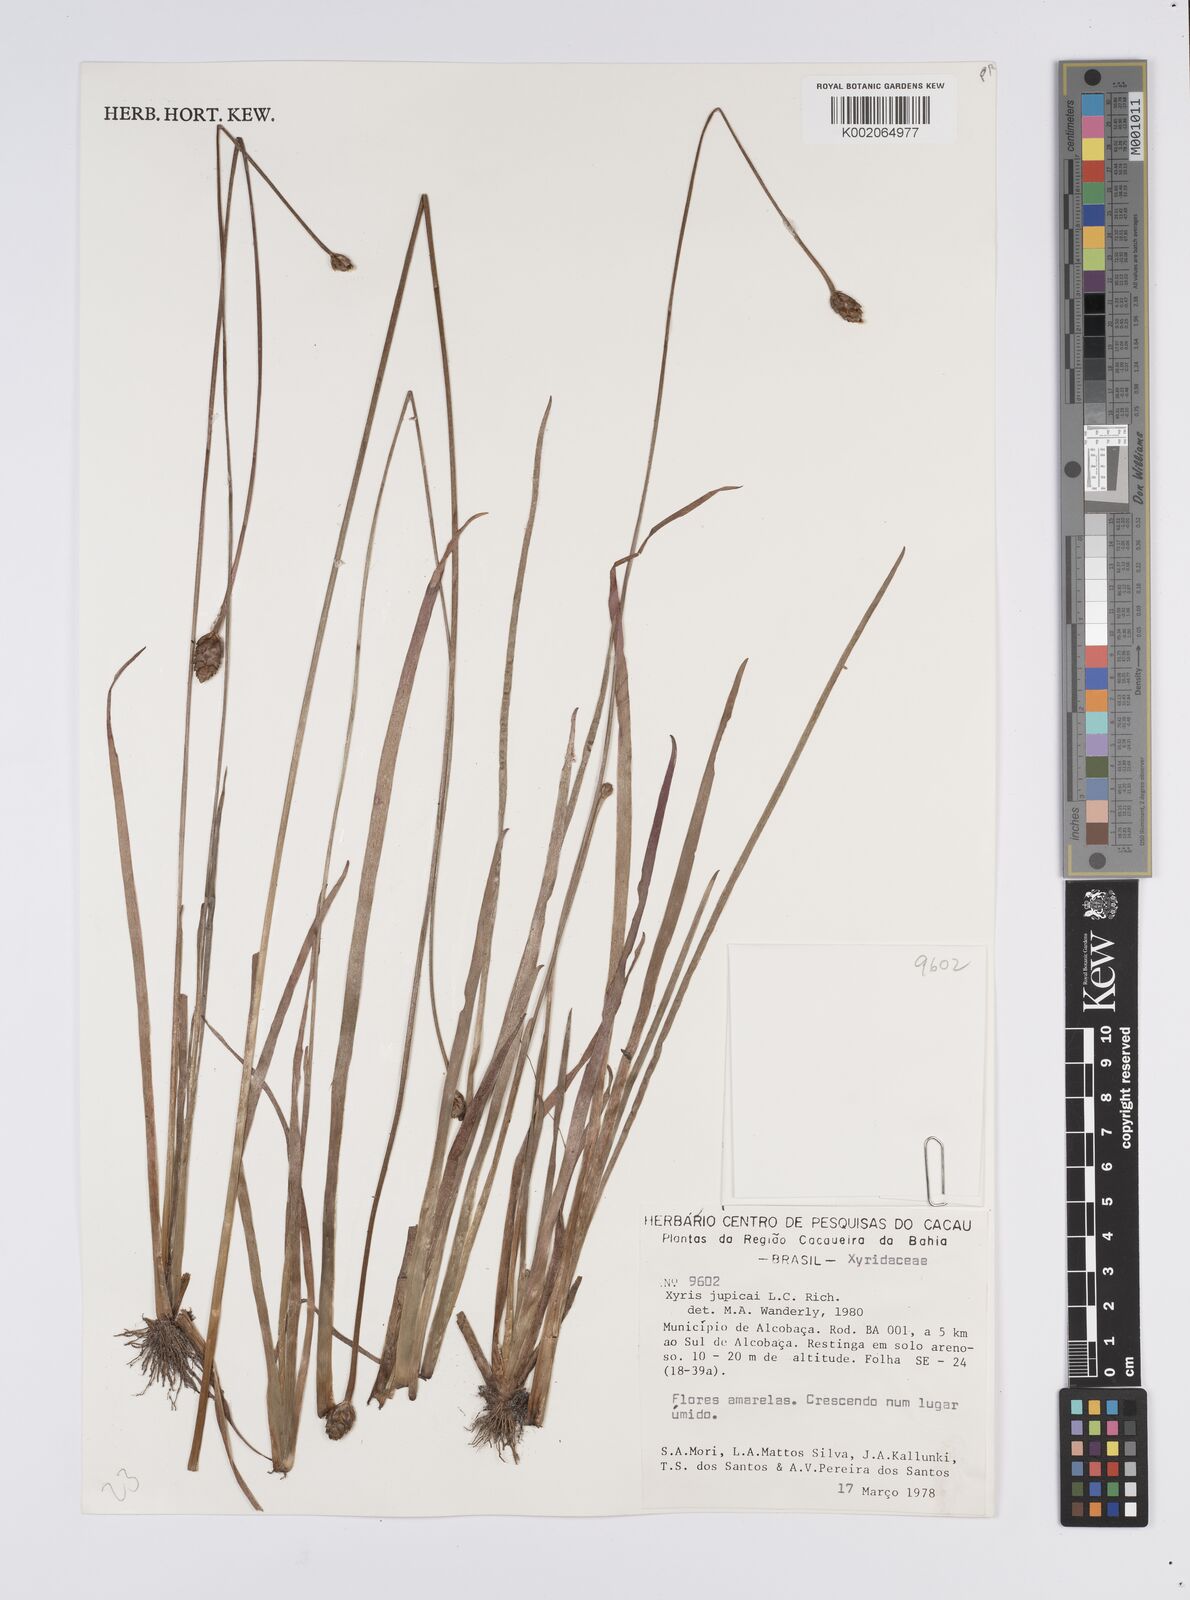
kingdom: Plantae
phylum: Tracheophyta
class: Liliopsida
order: Poales
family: Xyridaceae
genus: Xyris
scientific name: Xyris jupicai
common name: Richard's yelloweyed grass
